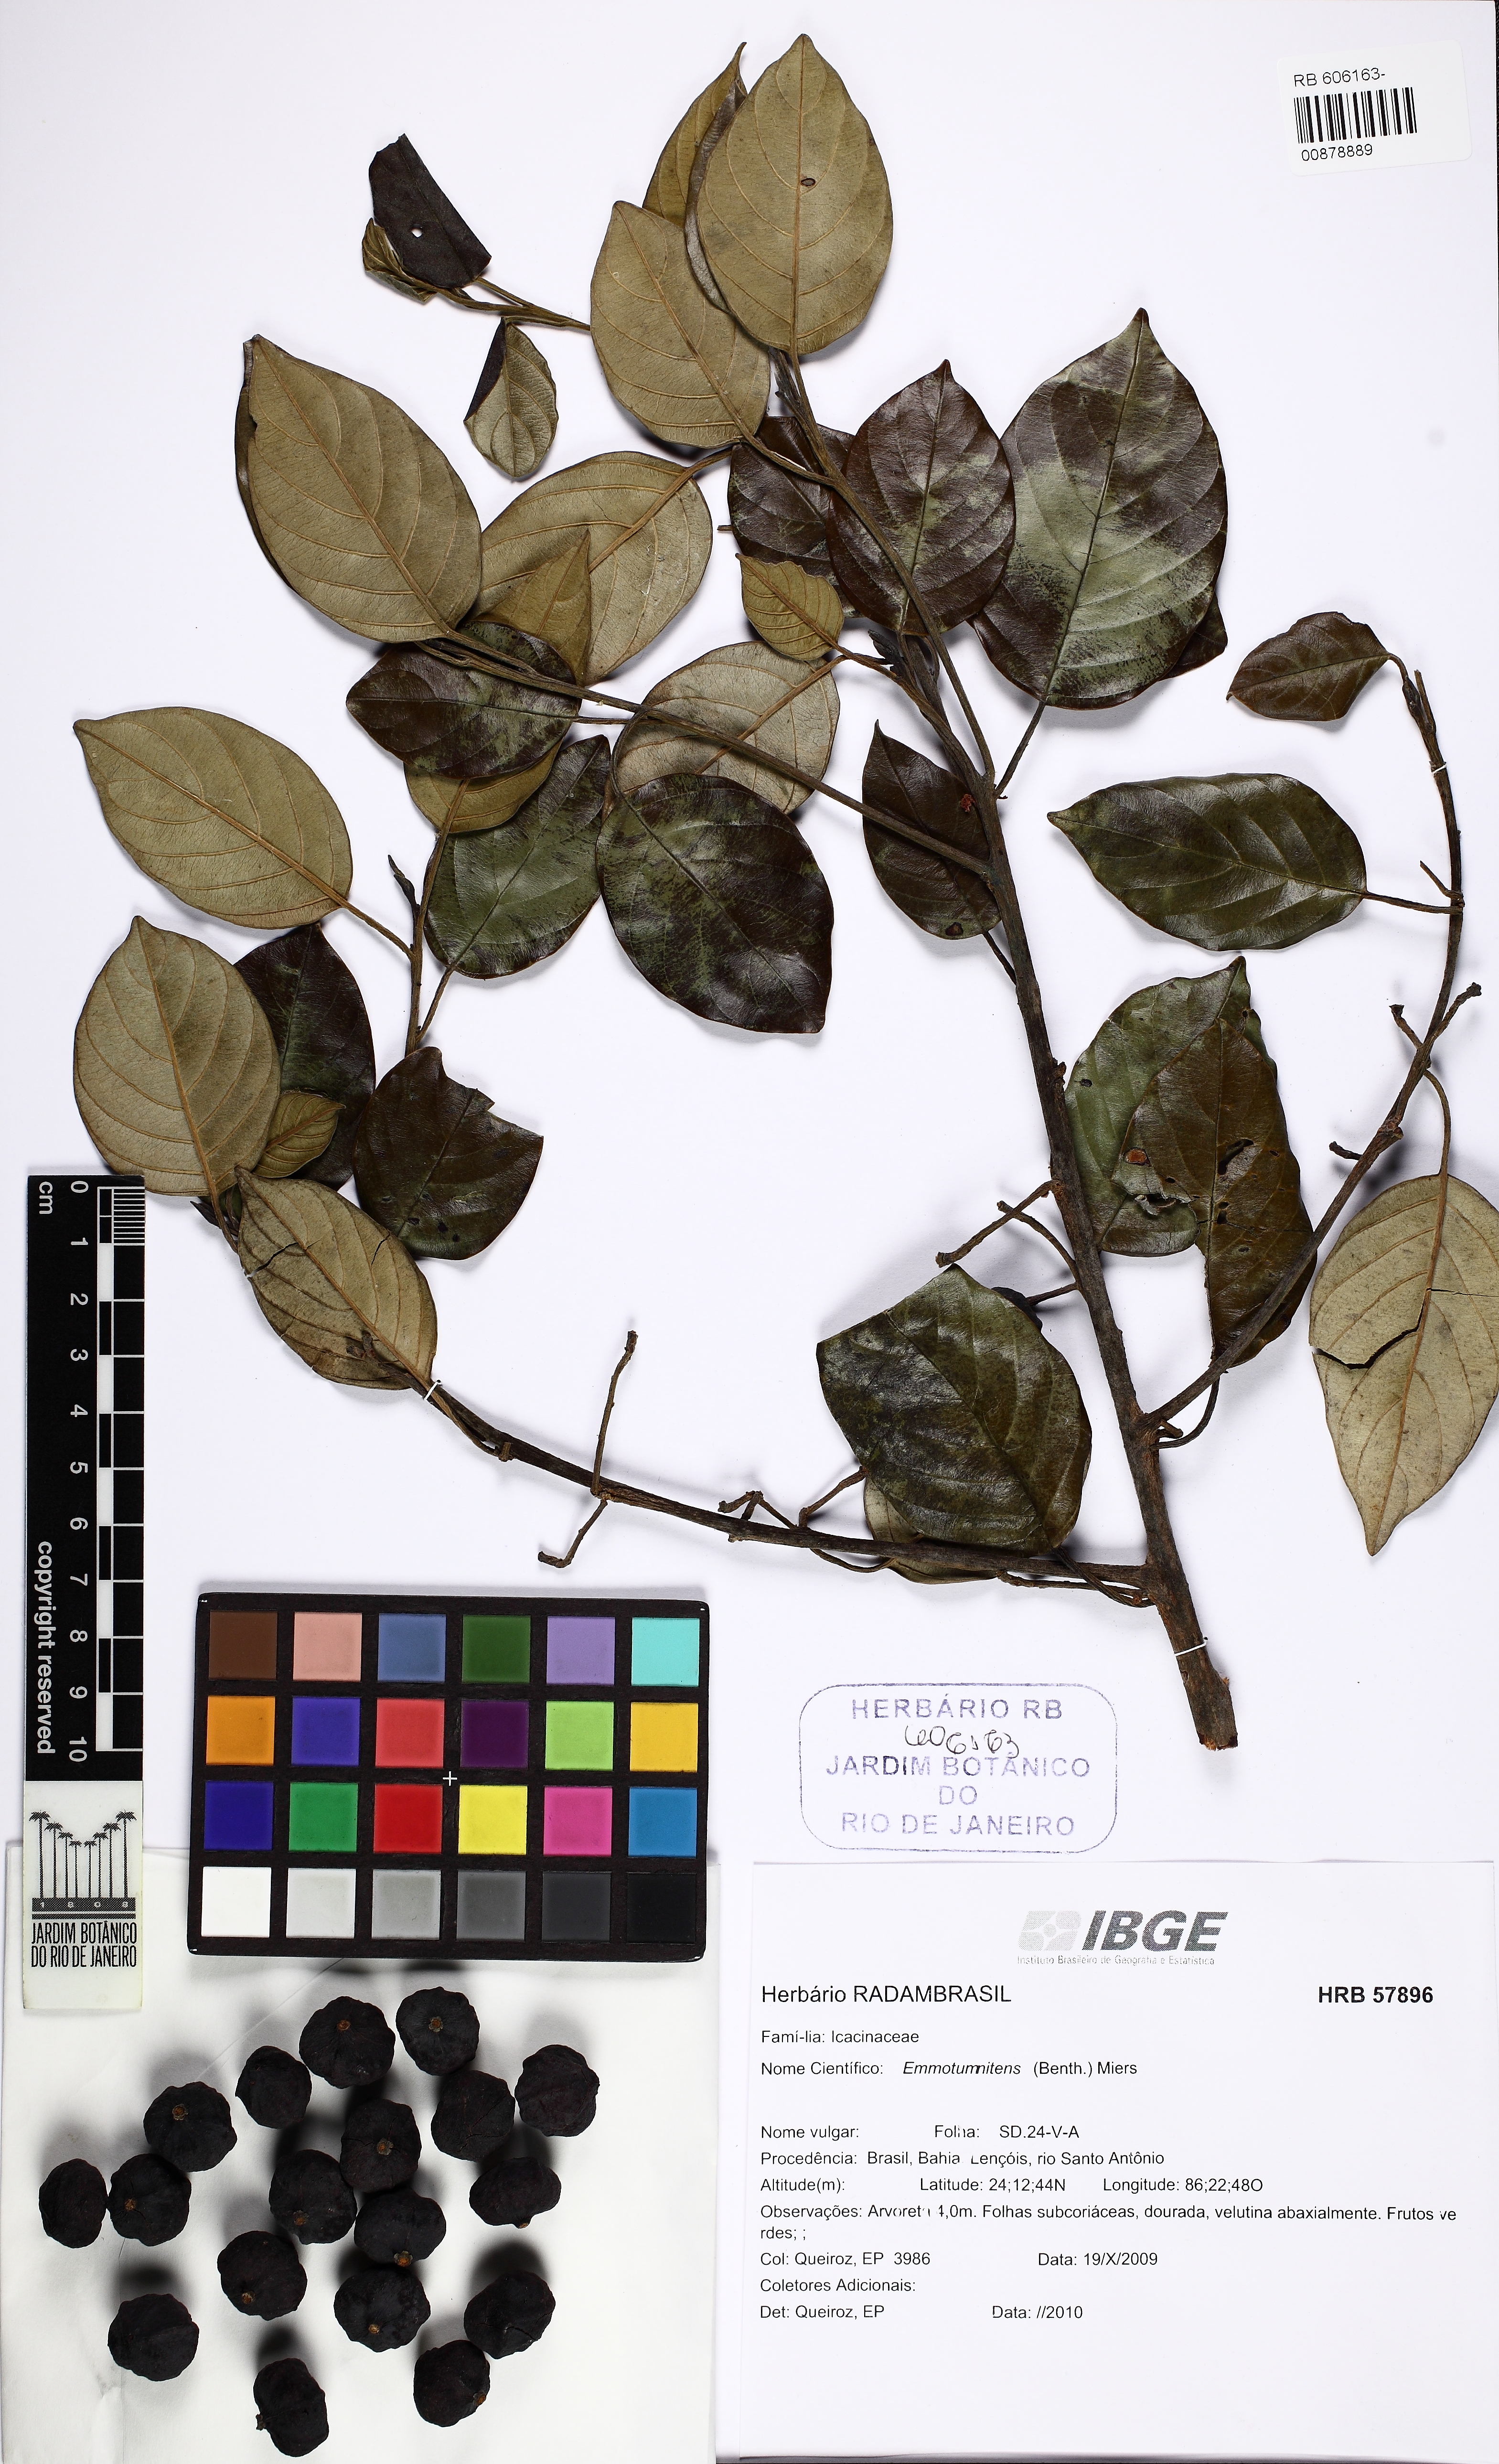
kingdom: Plantae
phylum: Tracheophyta
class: Magnoliopsida
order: Icacinales
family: Icacinaceae
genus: Emmotum
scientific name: Emmotum
